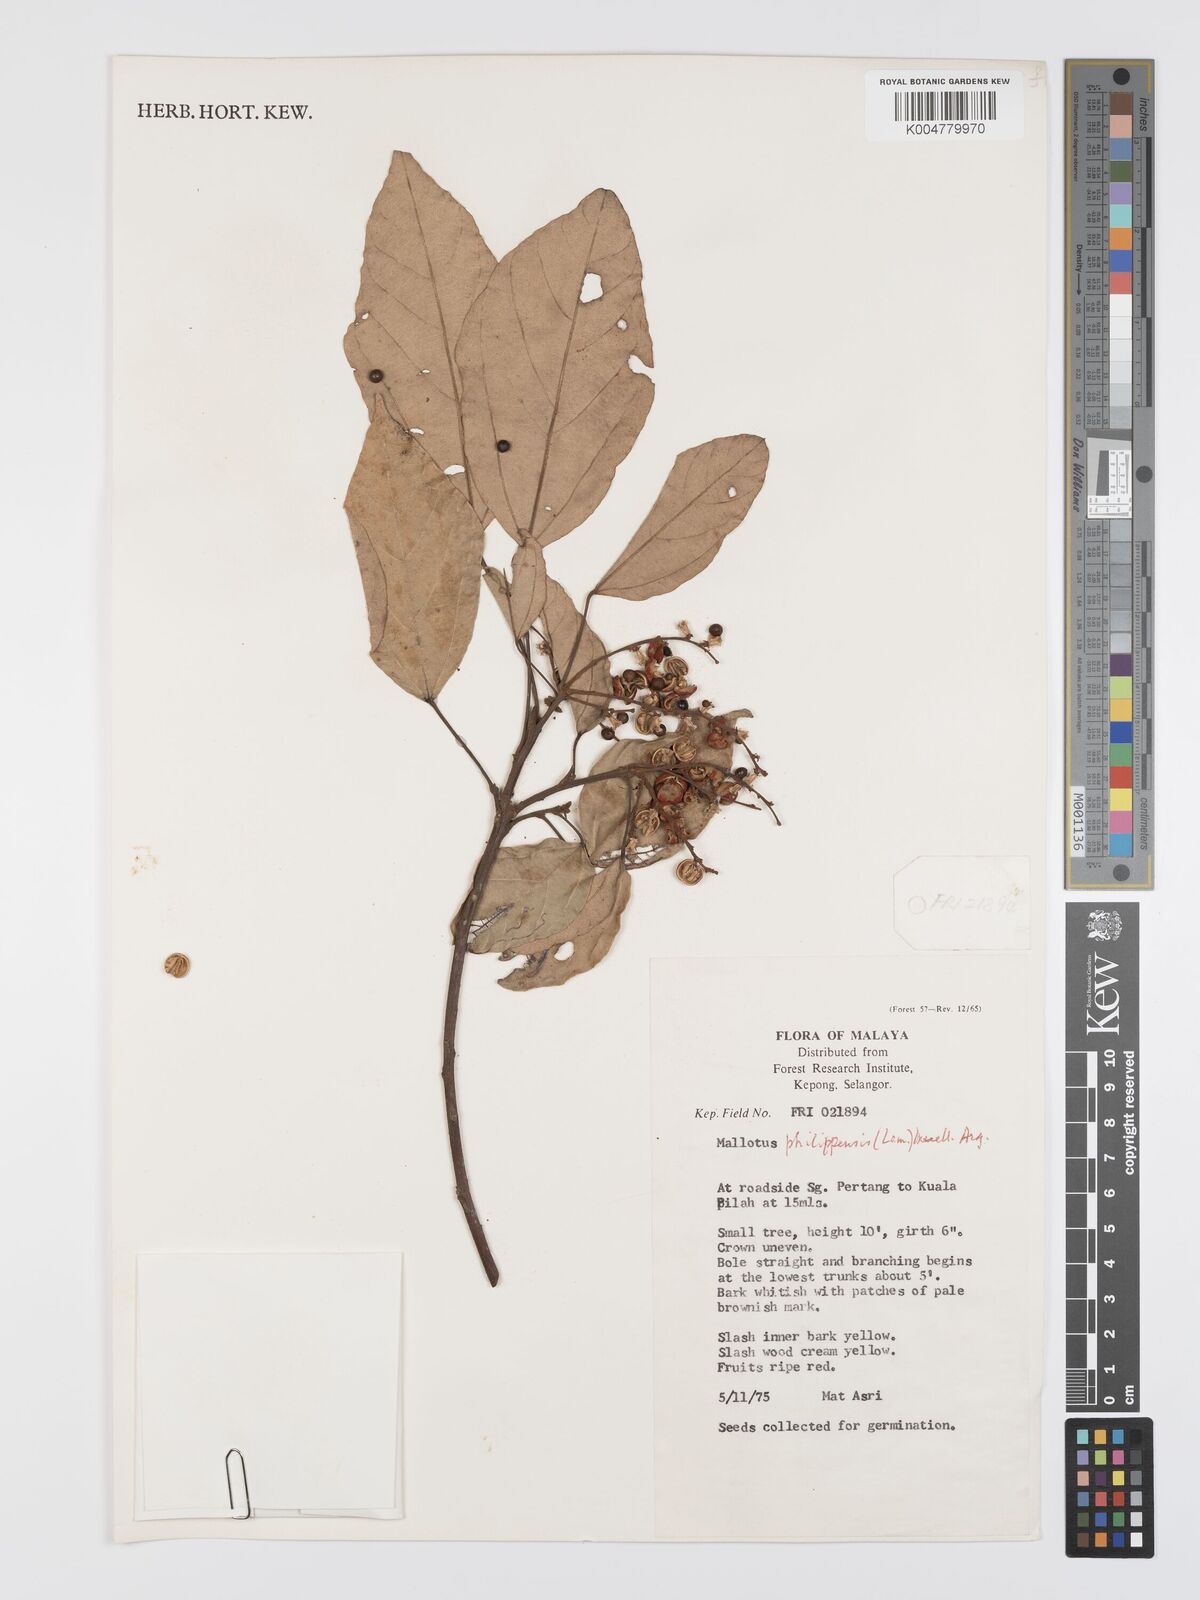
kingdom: Plantae
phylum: Tracheophyta
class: Magnoliopsida
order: Malpighiales
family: Euphorbiaceae
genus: Mallotus
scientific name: Mallotus philippensis
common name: Kamala tree
